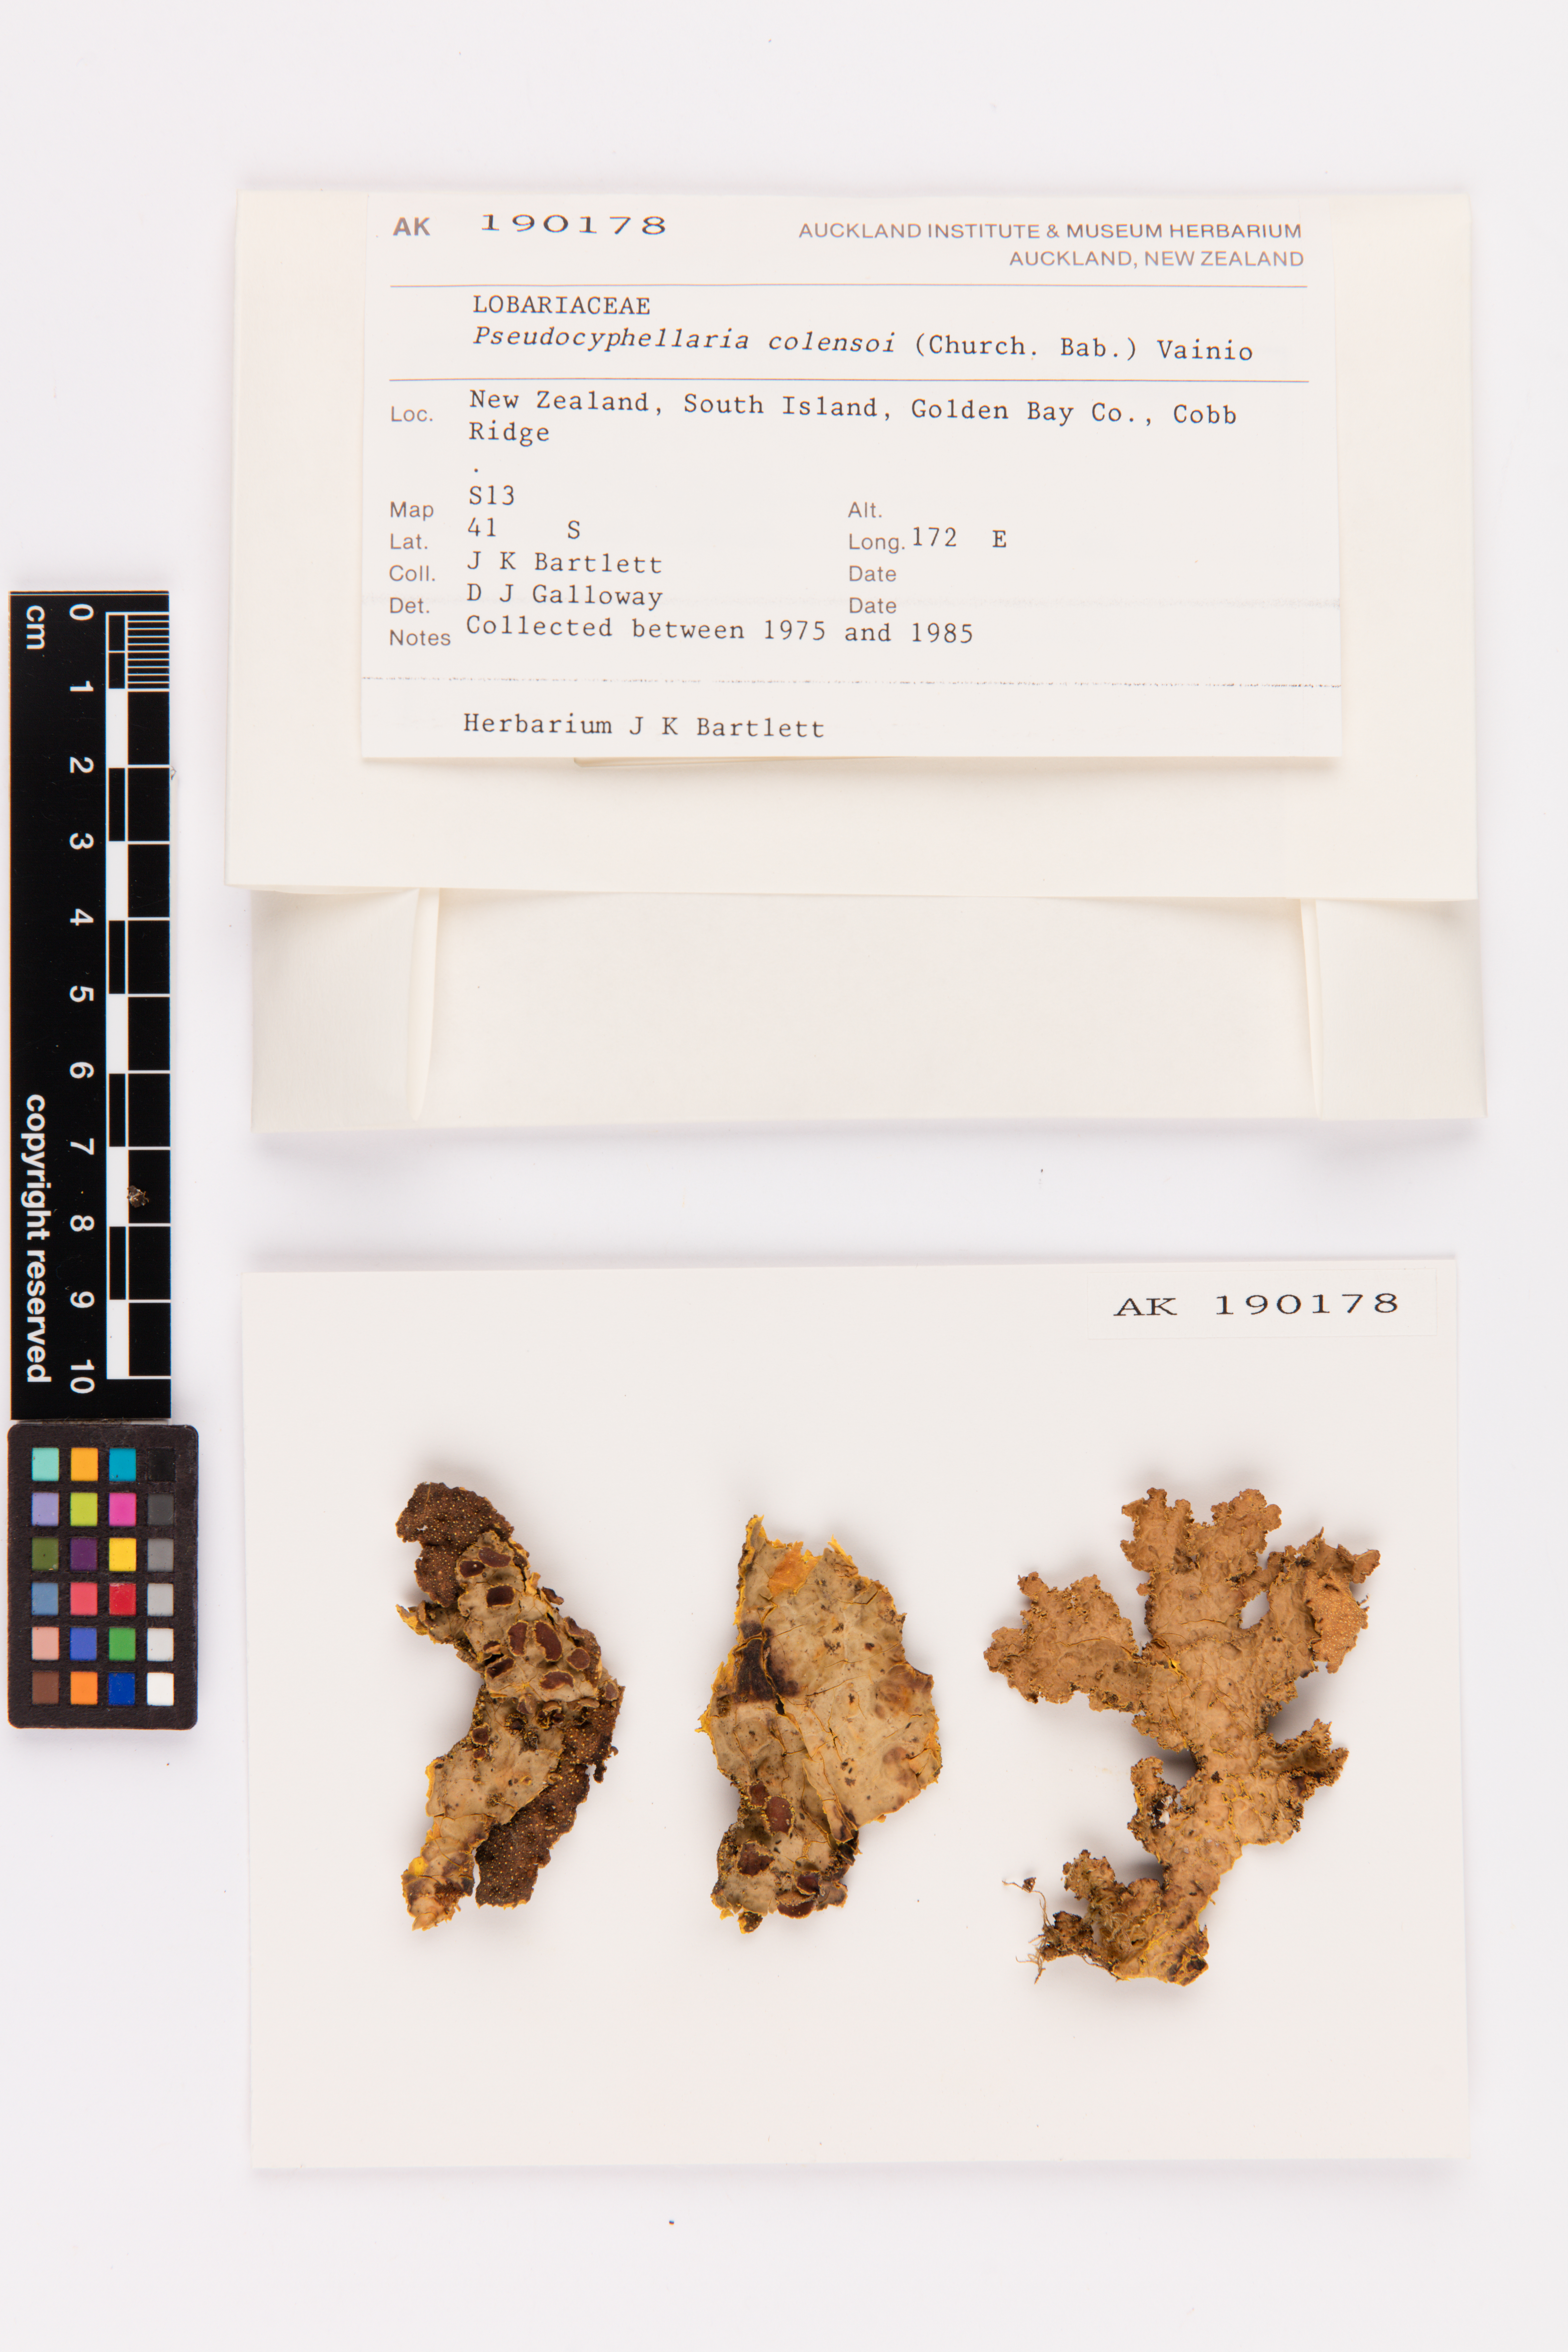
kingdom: Fungi
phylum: Ascomycota
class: Lecanoromycetes
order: Peltigerales
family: Lobariaceae
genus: Yarrumia
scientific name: Yarrumia colensoi
